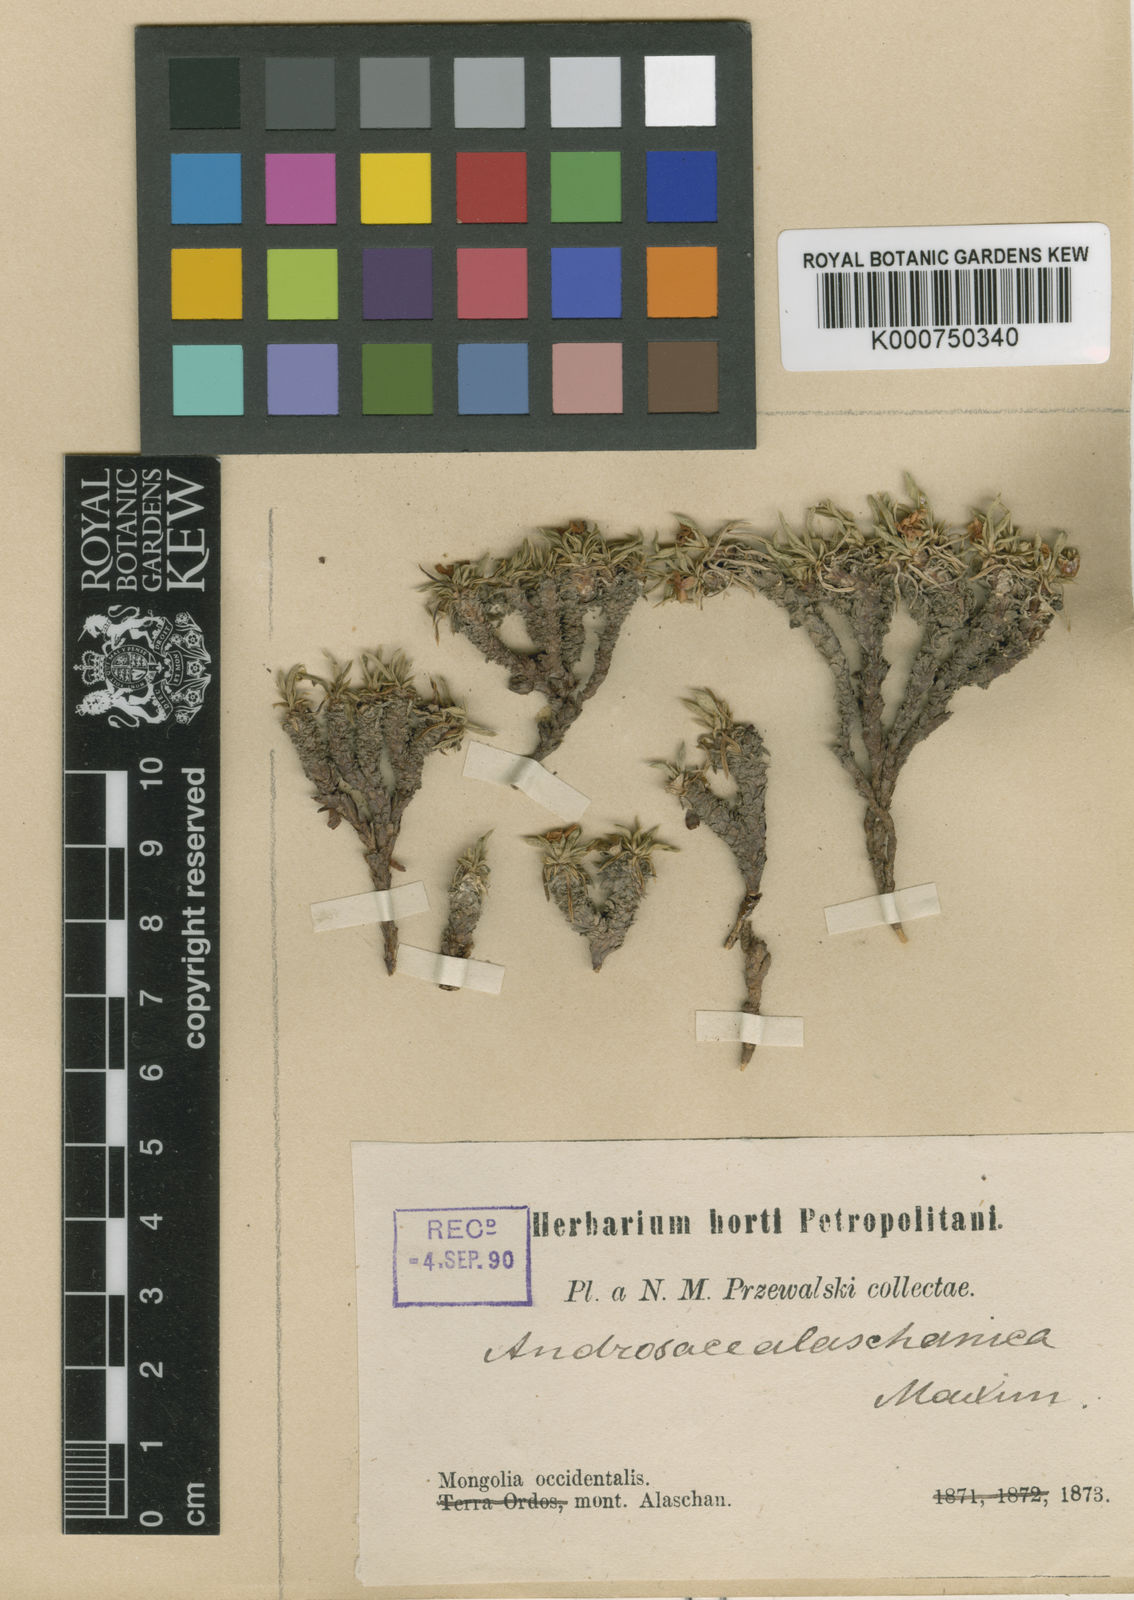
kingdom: Plantae
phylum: Tracheophyta
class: Magnoliopsida
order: Ericales
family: Primulaceae
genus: Androsace
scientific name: Androsace alaschanica
